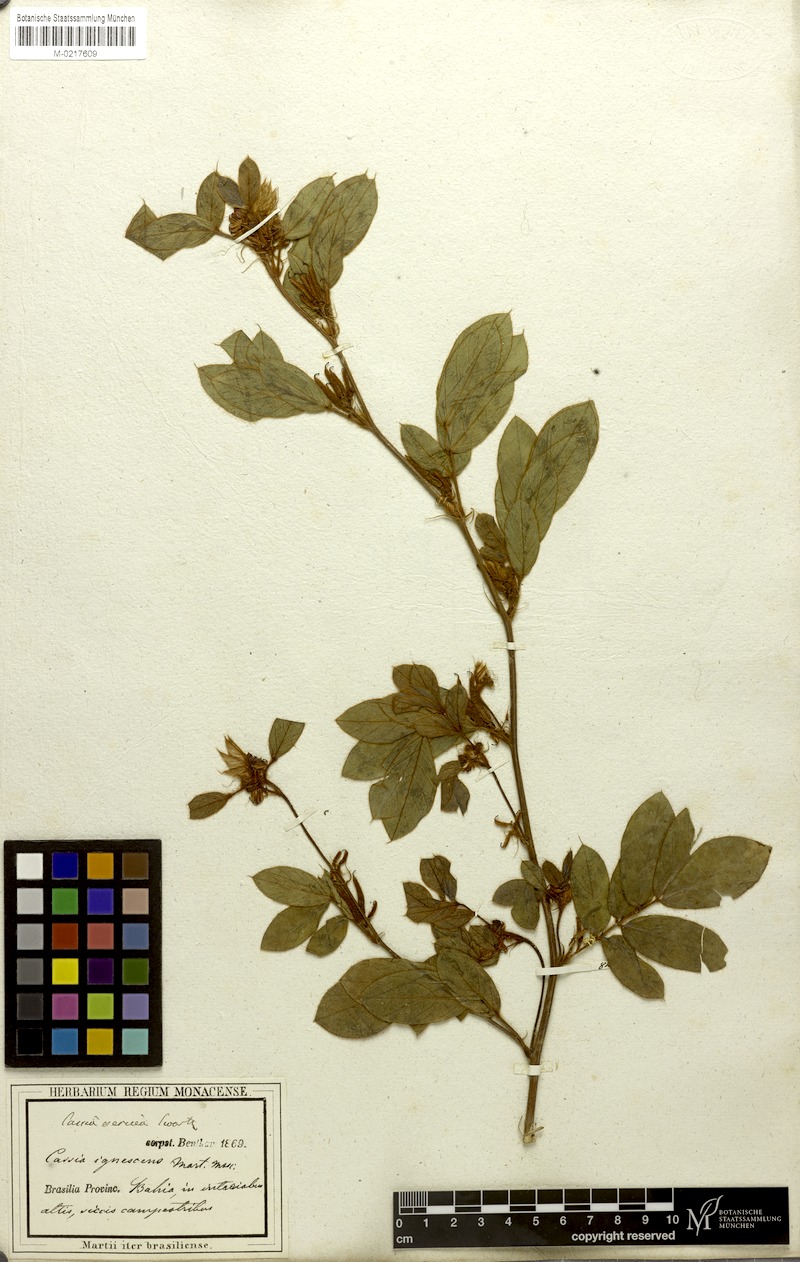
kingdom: Plantae
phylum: Tracheophyta
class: Magnoliopsida
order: Fabales
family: Fabaceae
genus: Senna
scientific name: Senna uniflora
